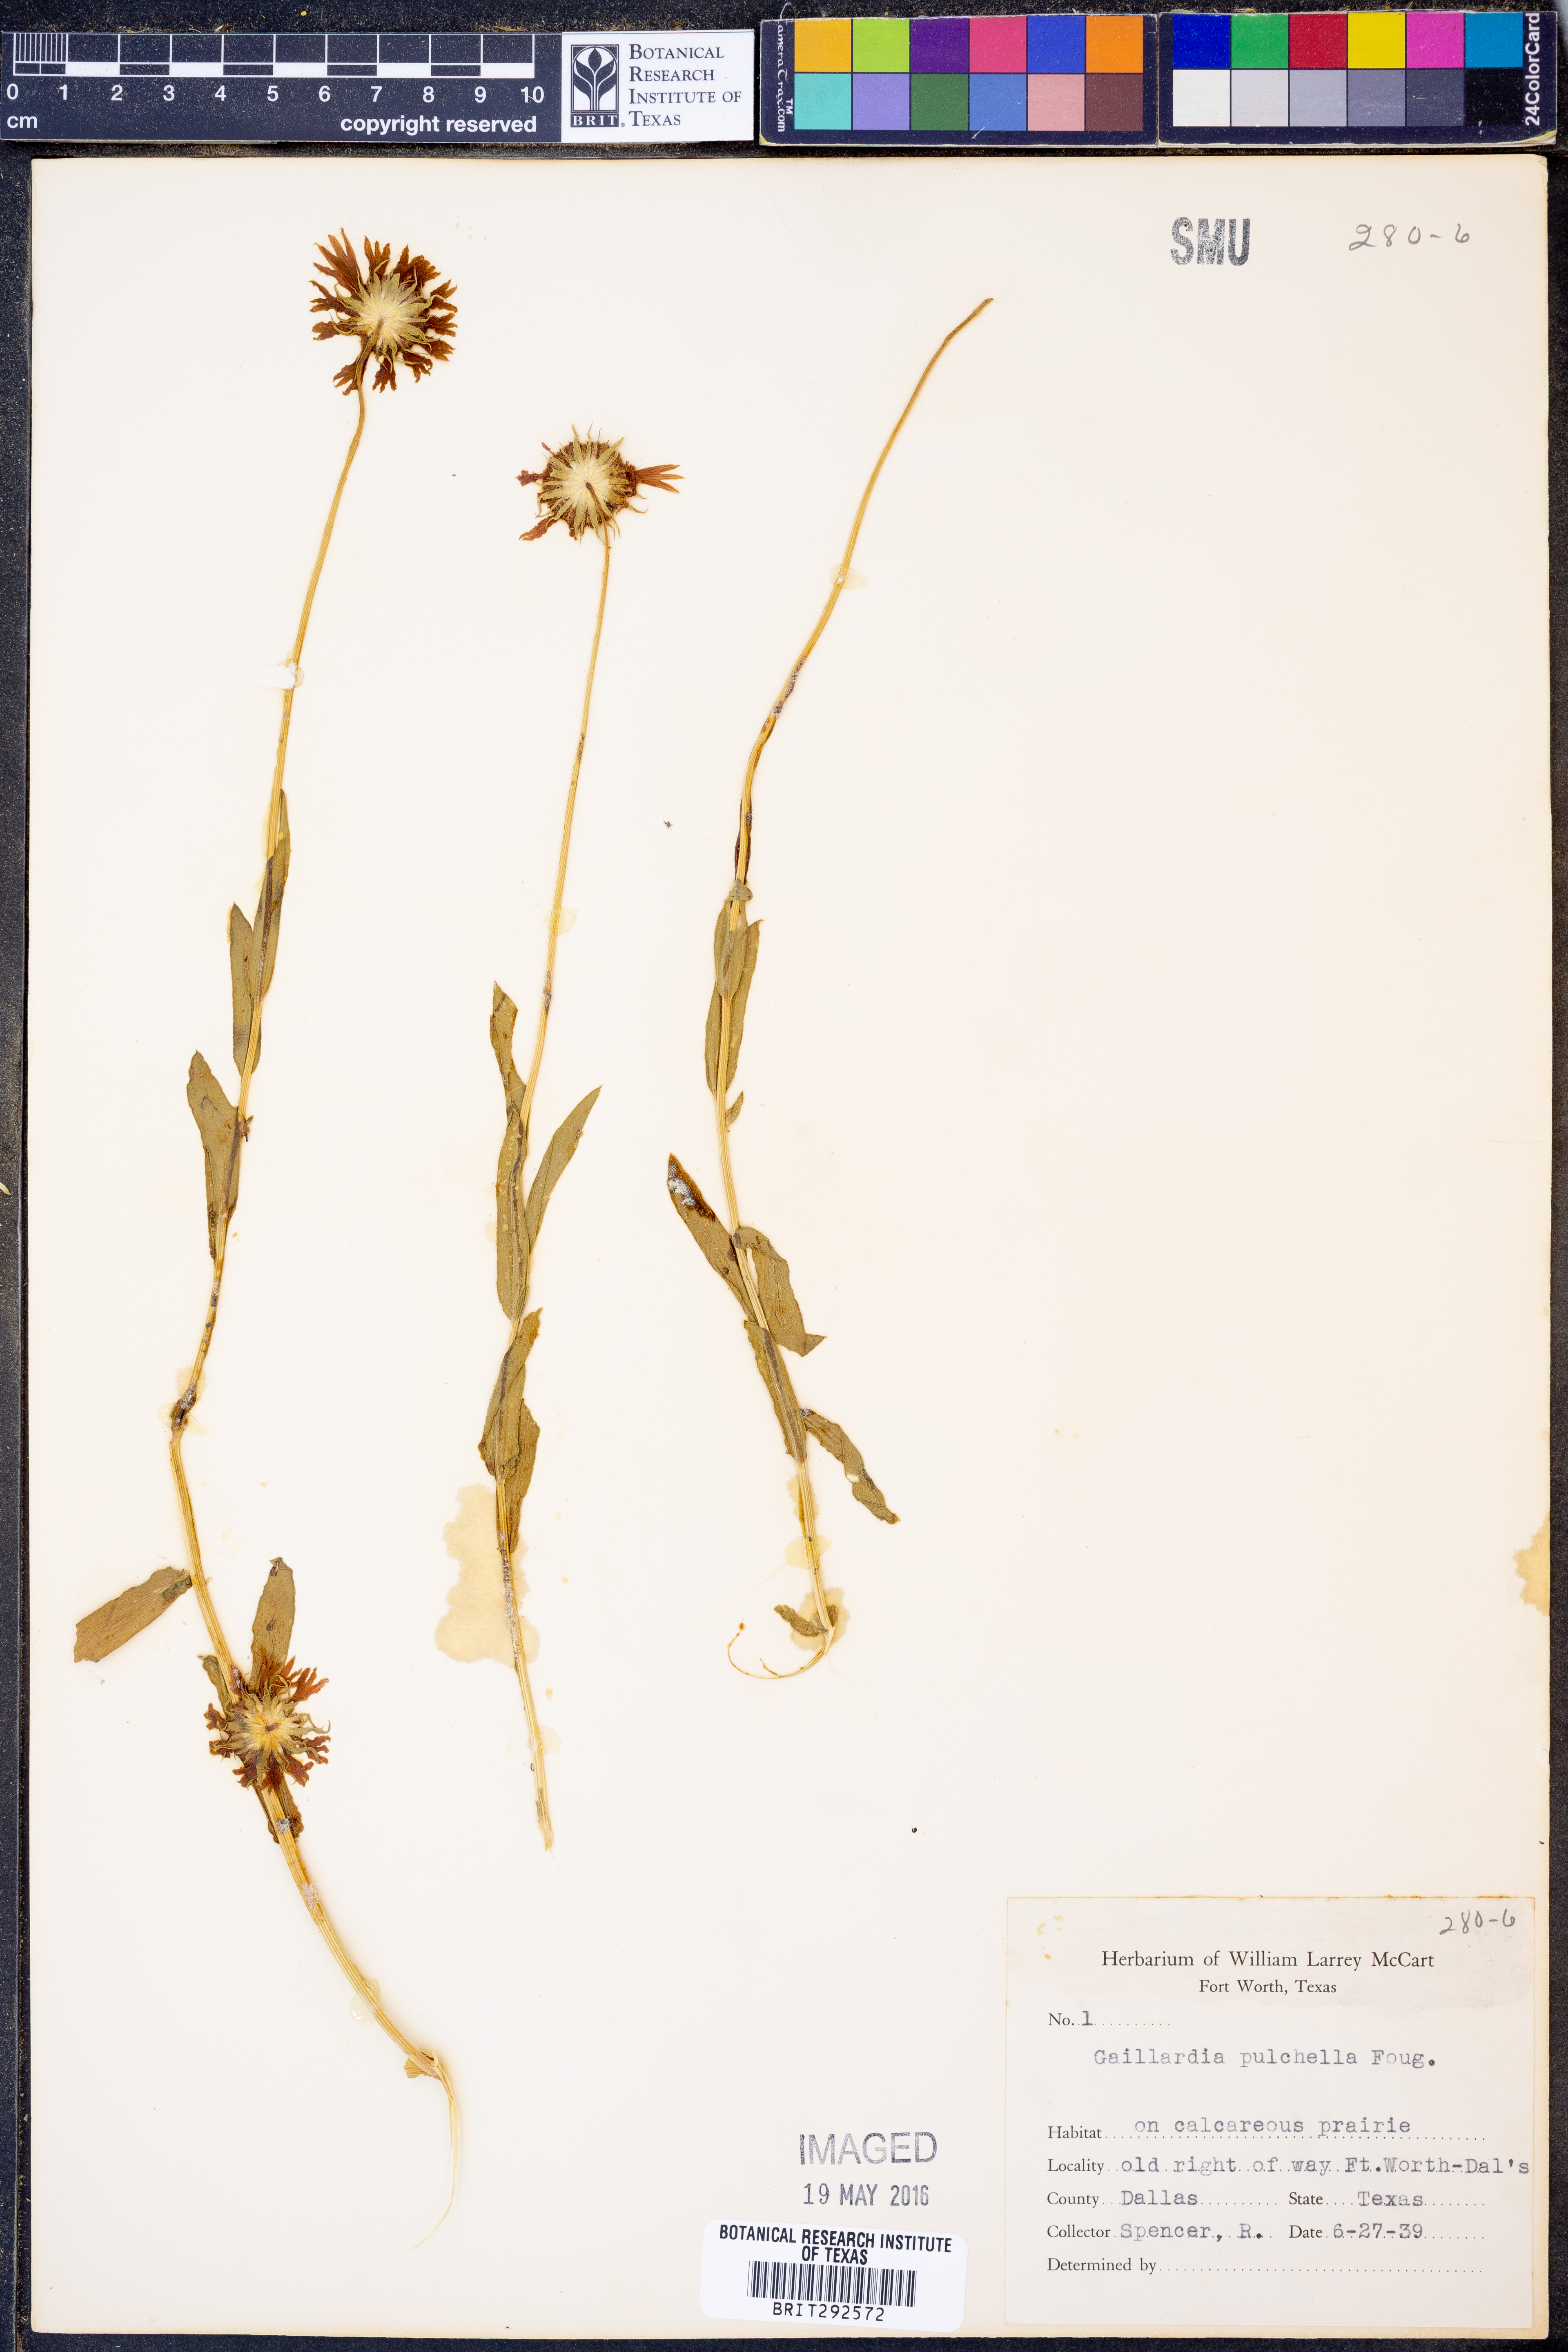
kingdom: Plantae
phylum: Tracheophyta
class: Magnoliopsida
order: Asterales
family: Asteraceae
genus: Gaillardia
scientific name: Gaillardia pulchella
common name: Firewheel
